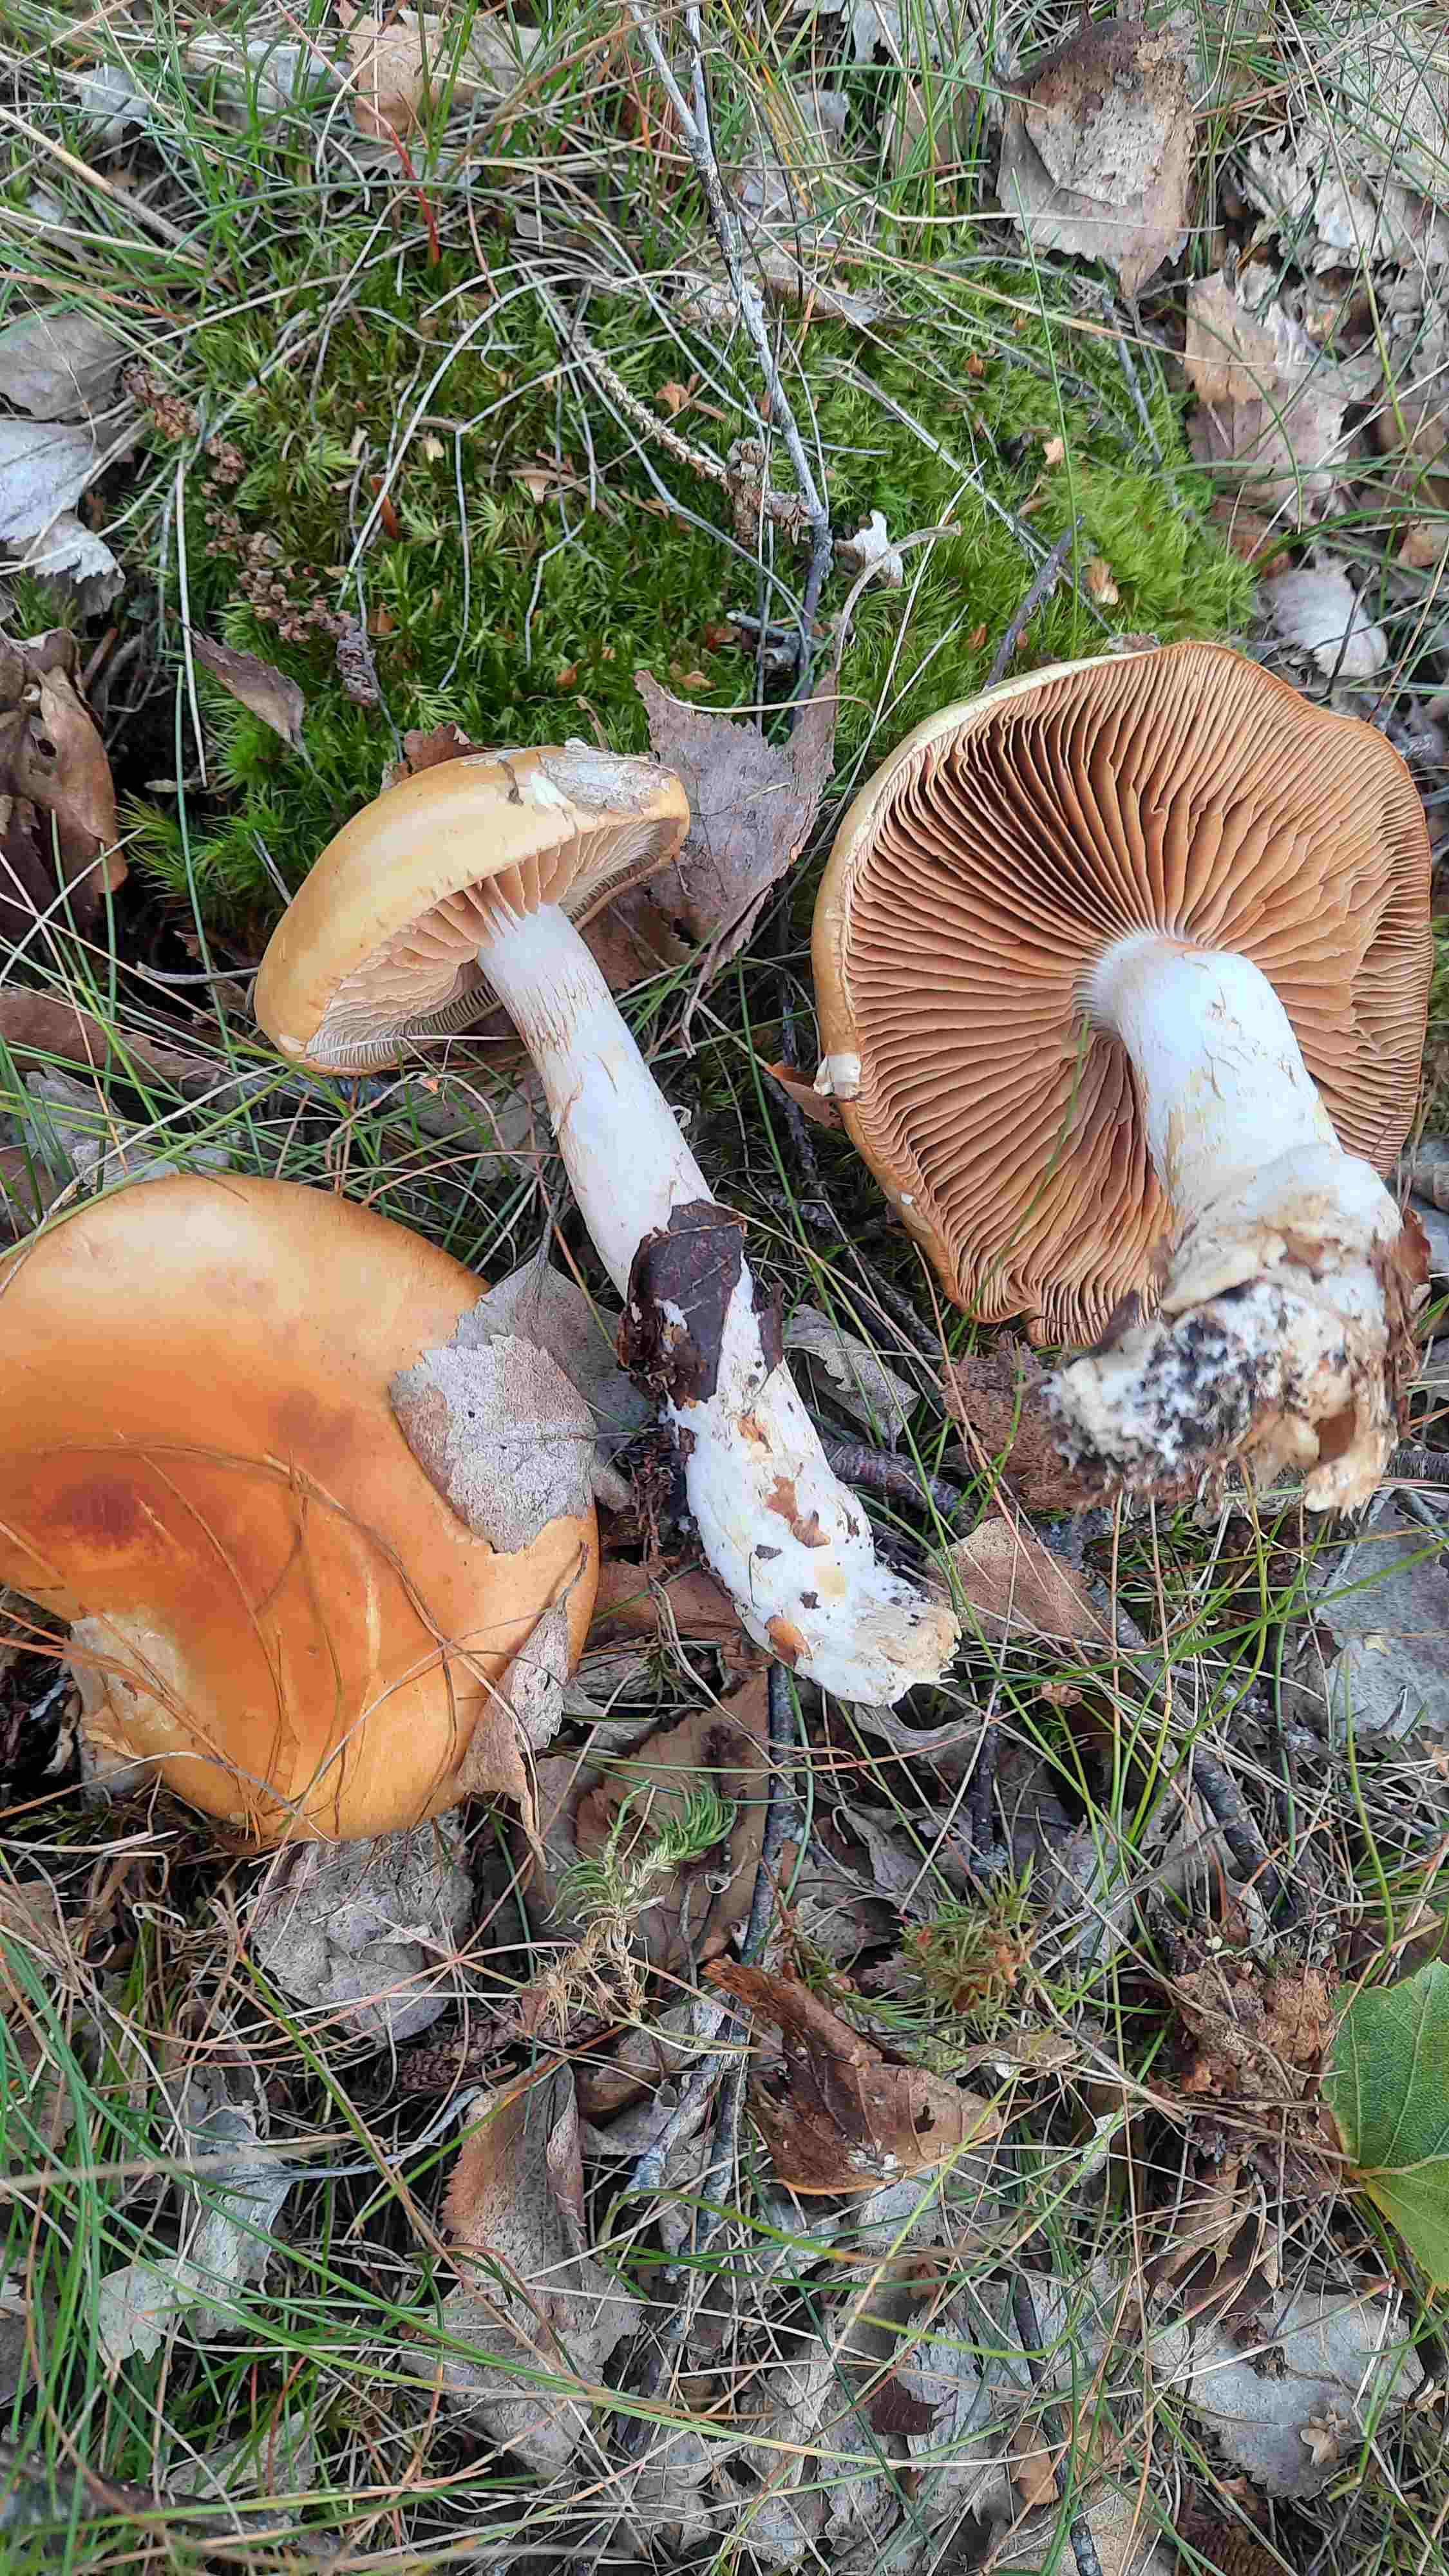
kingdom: Fungi
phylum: Basidiomycota
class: Agaricomycetes
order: Agaricales
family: Cortinariaceae
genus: Cortinarius
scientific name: Cortinarius
